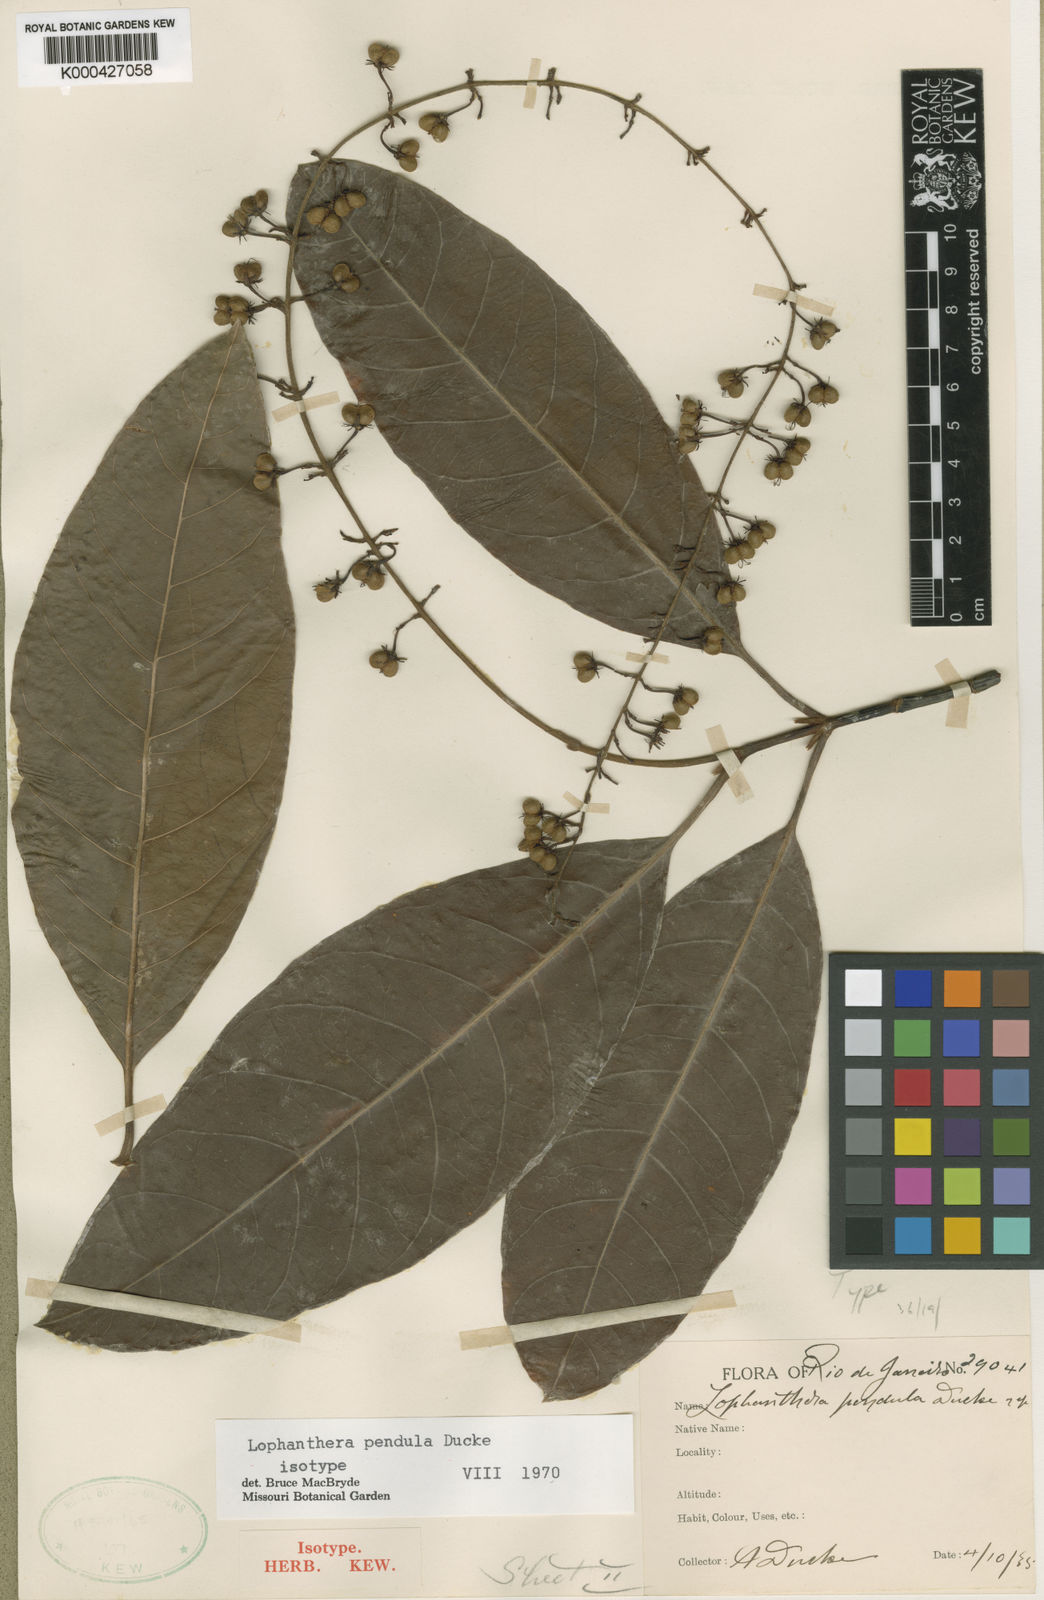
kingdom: Plantae
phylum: Tracheophyta
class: Magnoliopsida
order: Malpighiales
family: Malpighiaceae
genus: Lophanthera
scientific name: Lophanthera pendula
